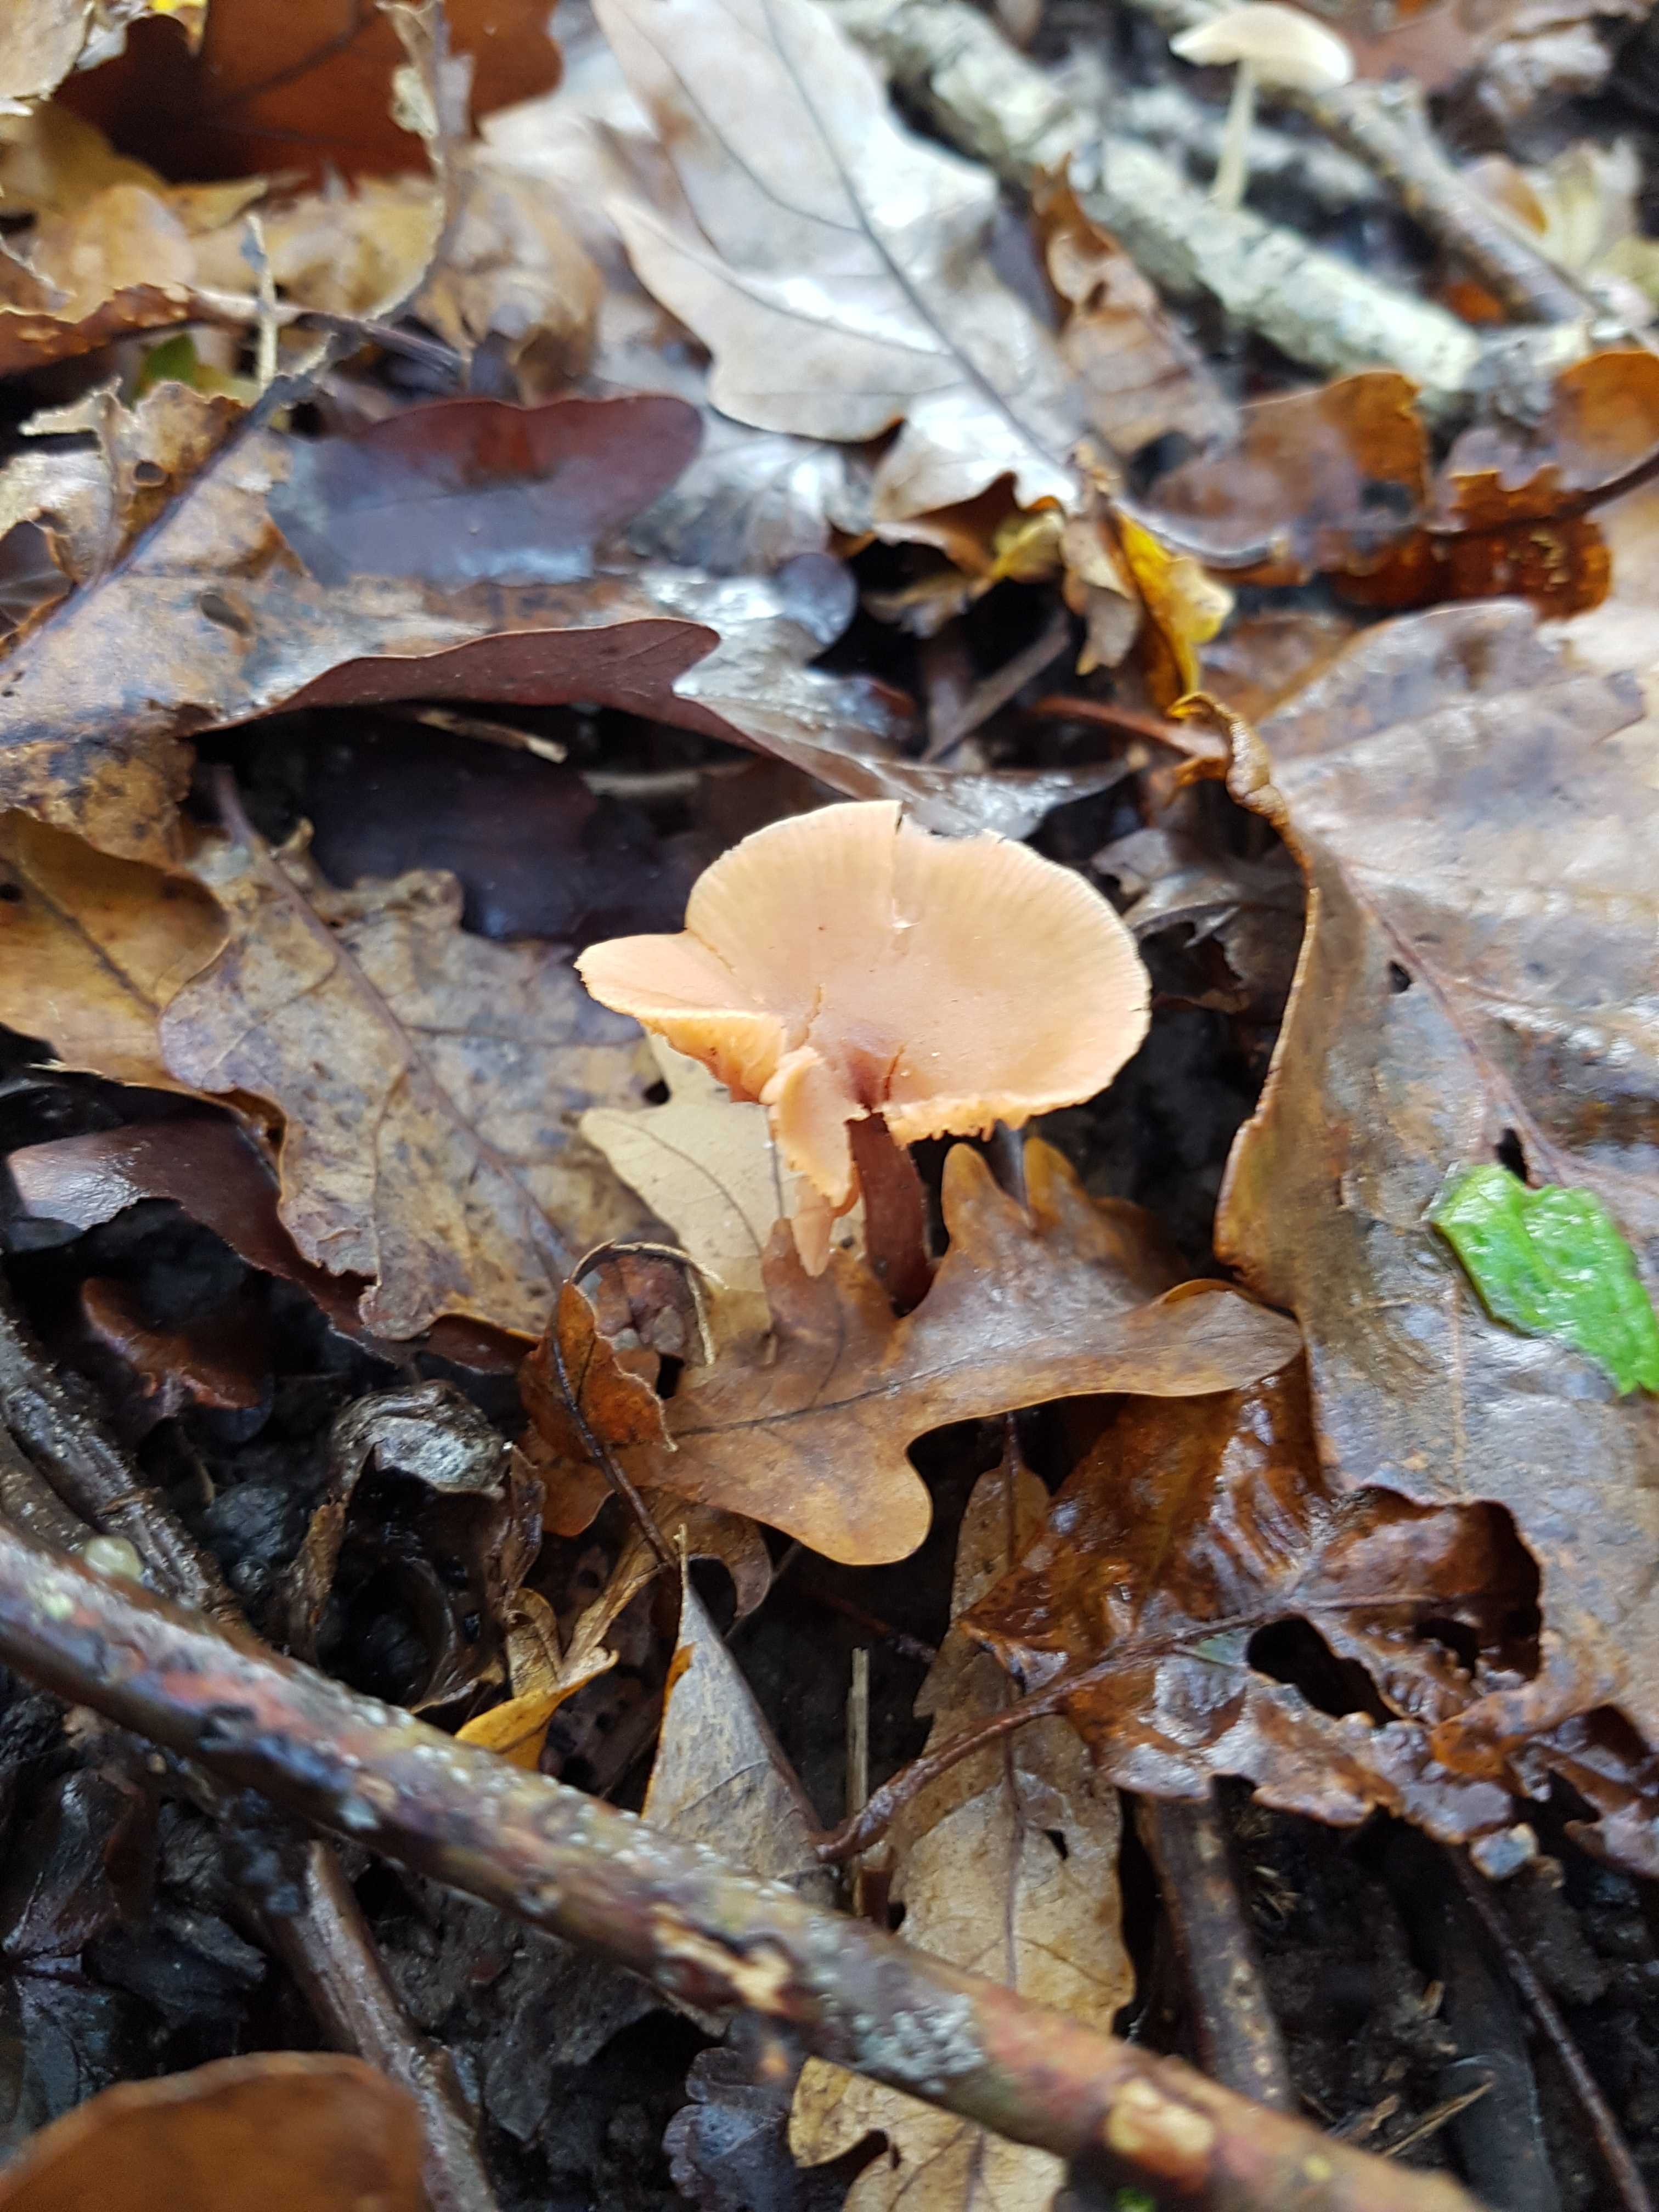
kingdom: Fungi
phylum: Basidiomycota
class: Agaricomycetes
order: Agaricales
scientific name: Agaricales
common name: champignonordenen
